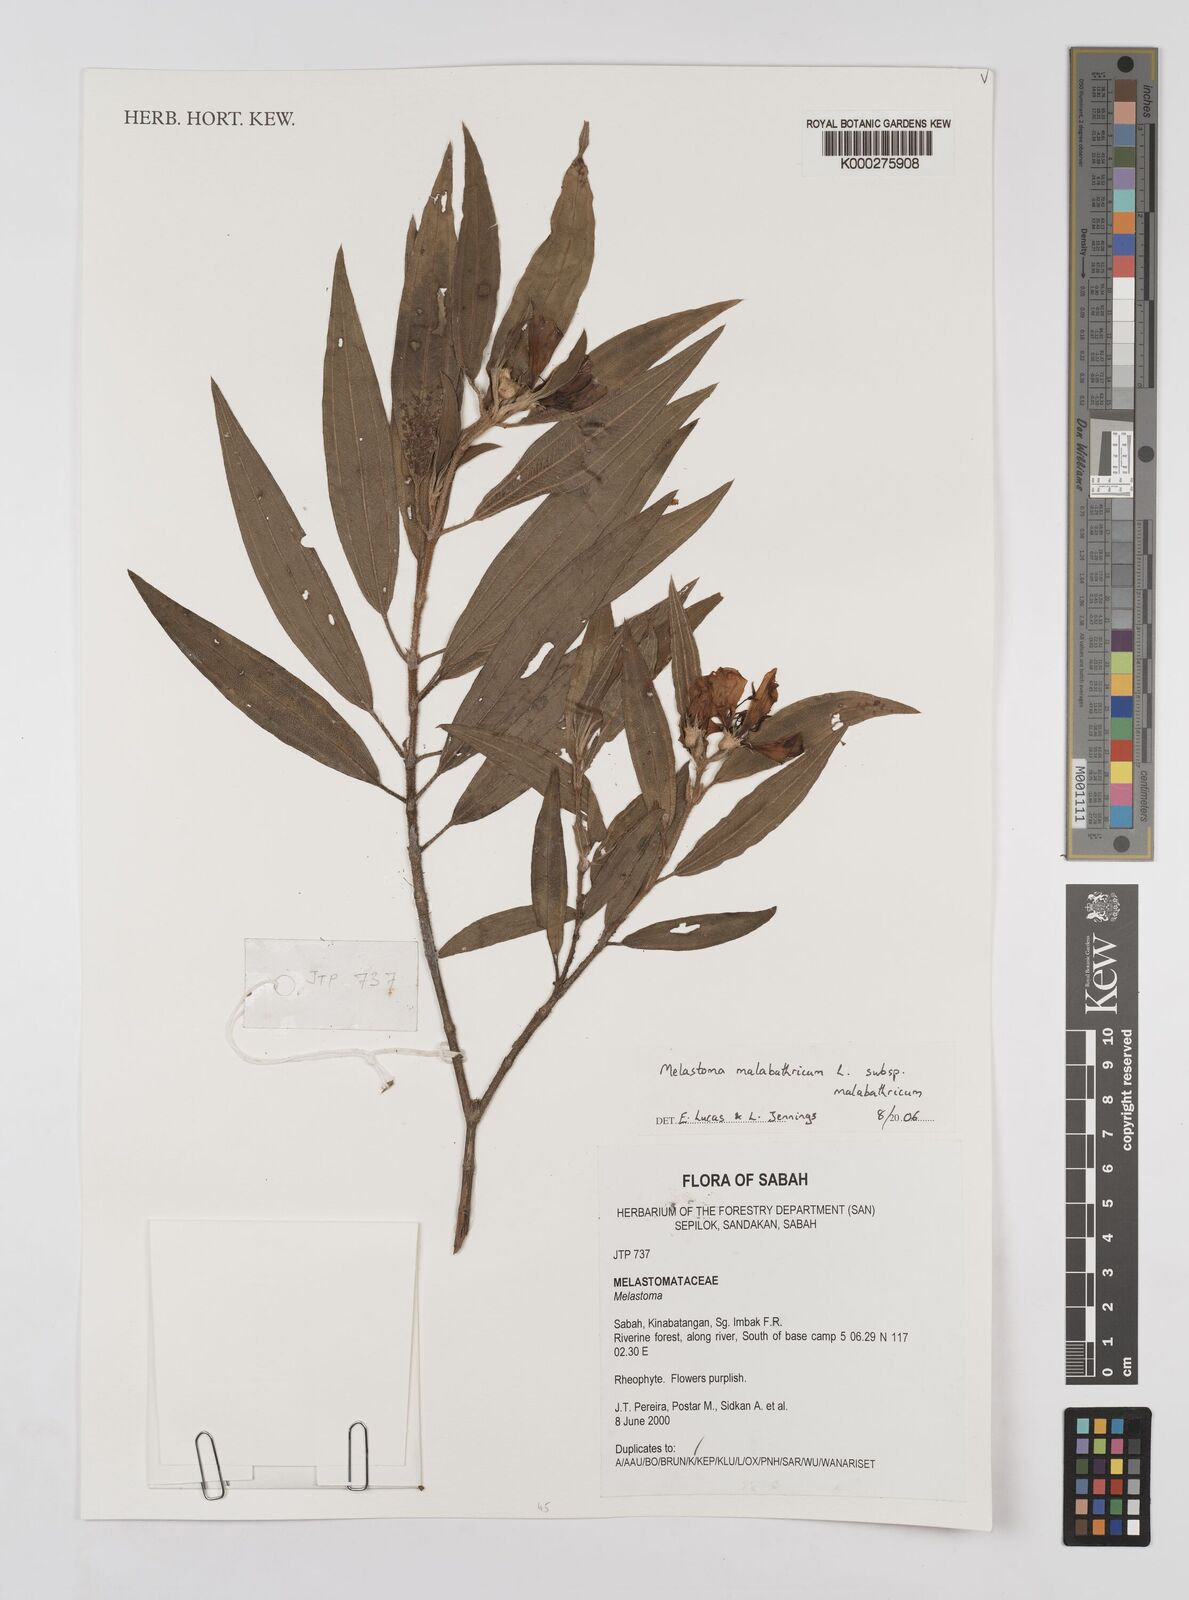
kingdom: Plantae
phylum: Tracheophyta
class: Magnoliopsida
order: Myrtales
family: Melastomataceae
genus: Melastoma
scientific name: Melastoma malabathricum
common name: Indian-rhododendron
